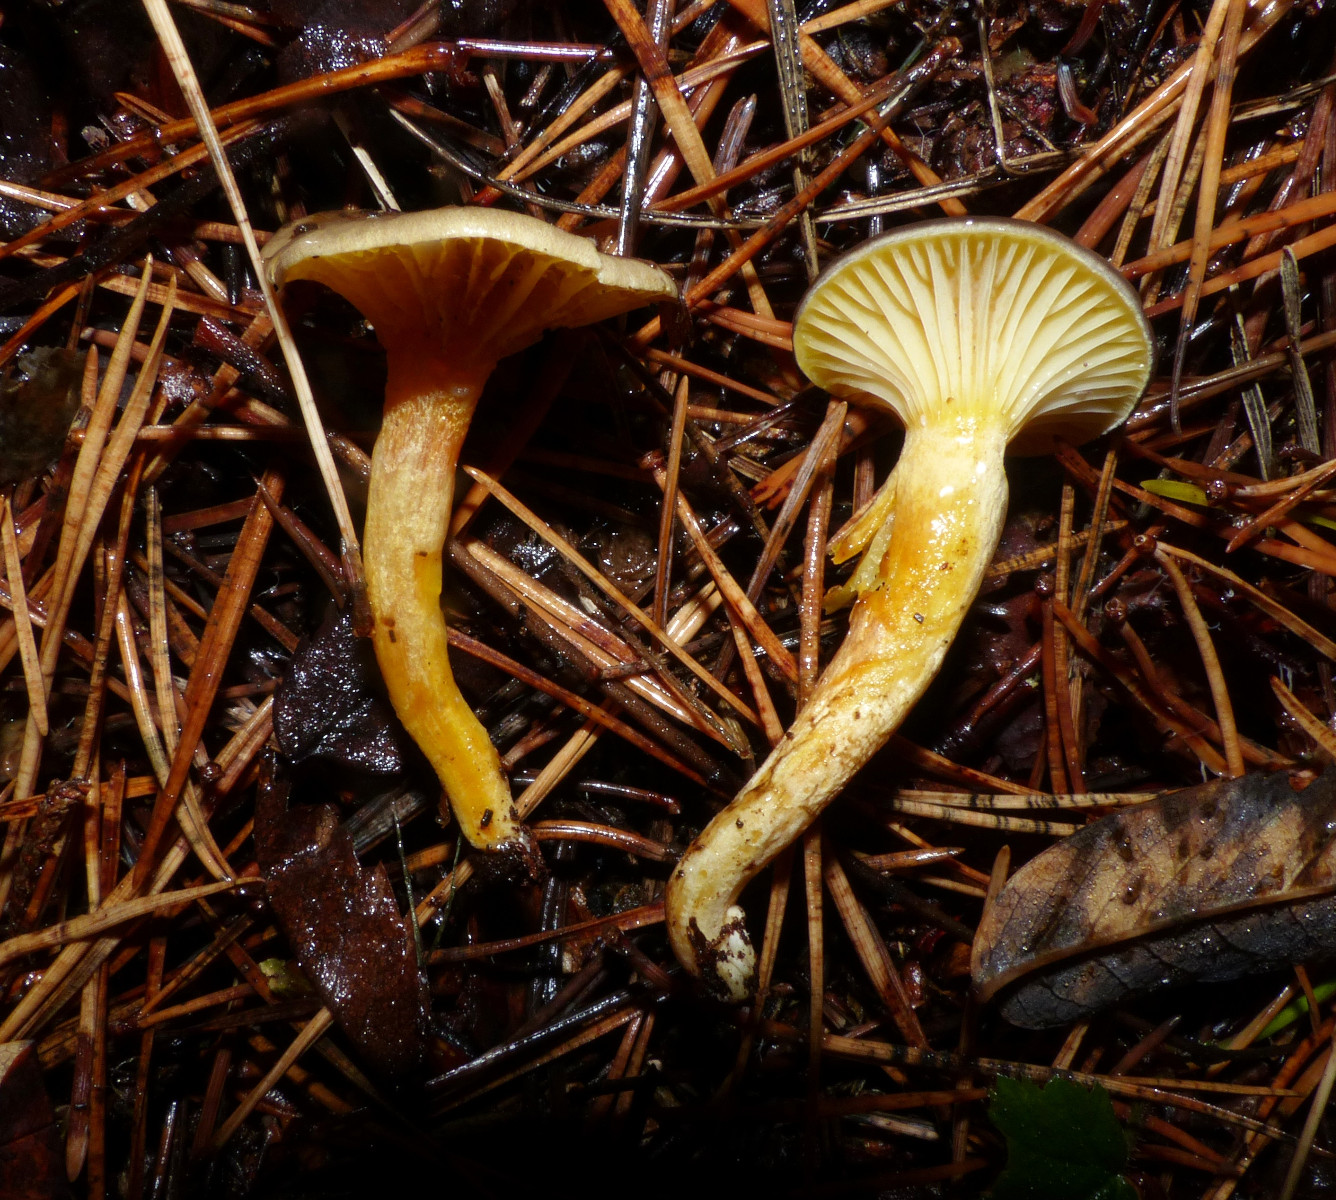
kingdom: Fungi
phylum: Basidiomycota
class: Agaricomycetes
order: Agaricales
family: Hygrophoraceae
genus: Hygrophorus
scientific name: Hygrophorus hypothejus
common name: frost-sneglehat
